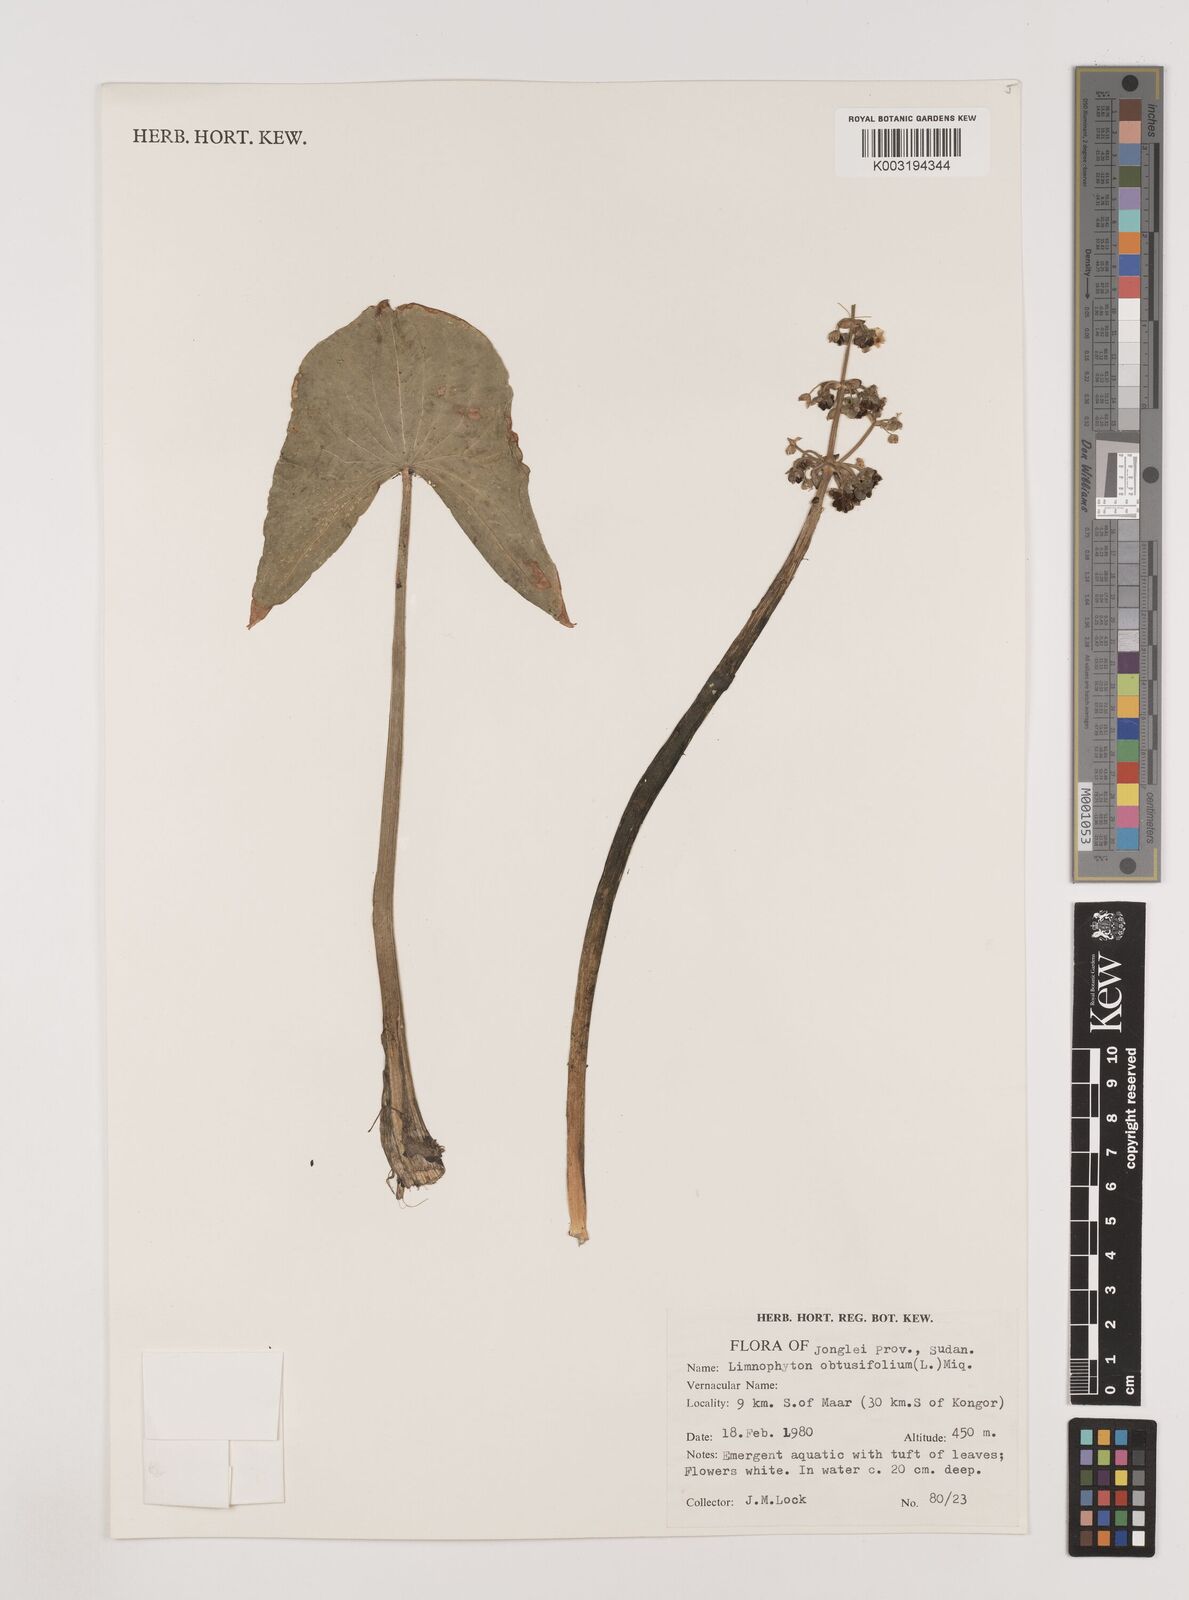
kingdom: Plantae
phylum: Tracheophyta
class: Liliopsida
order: Alismatales
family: Alismataceae
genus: Limnophyton
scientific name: Limnophyton obtusifolium
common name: Arrow head
